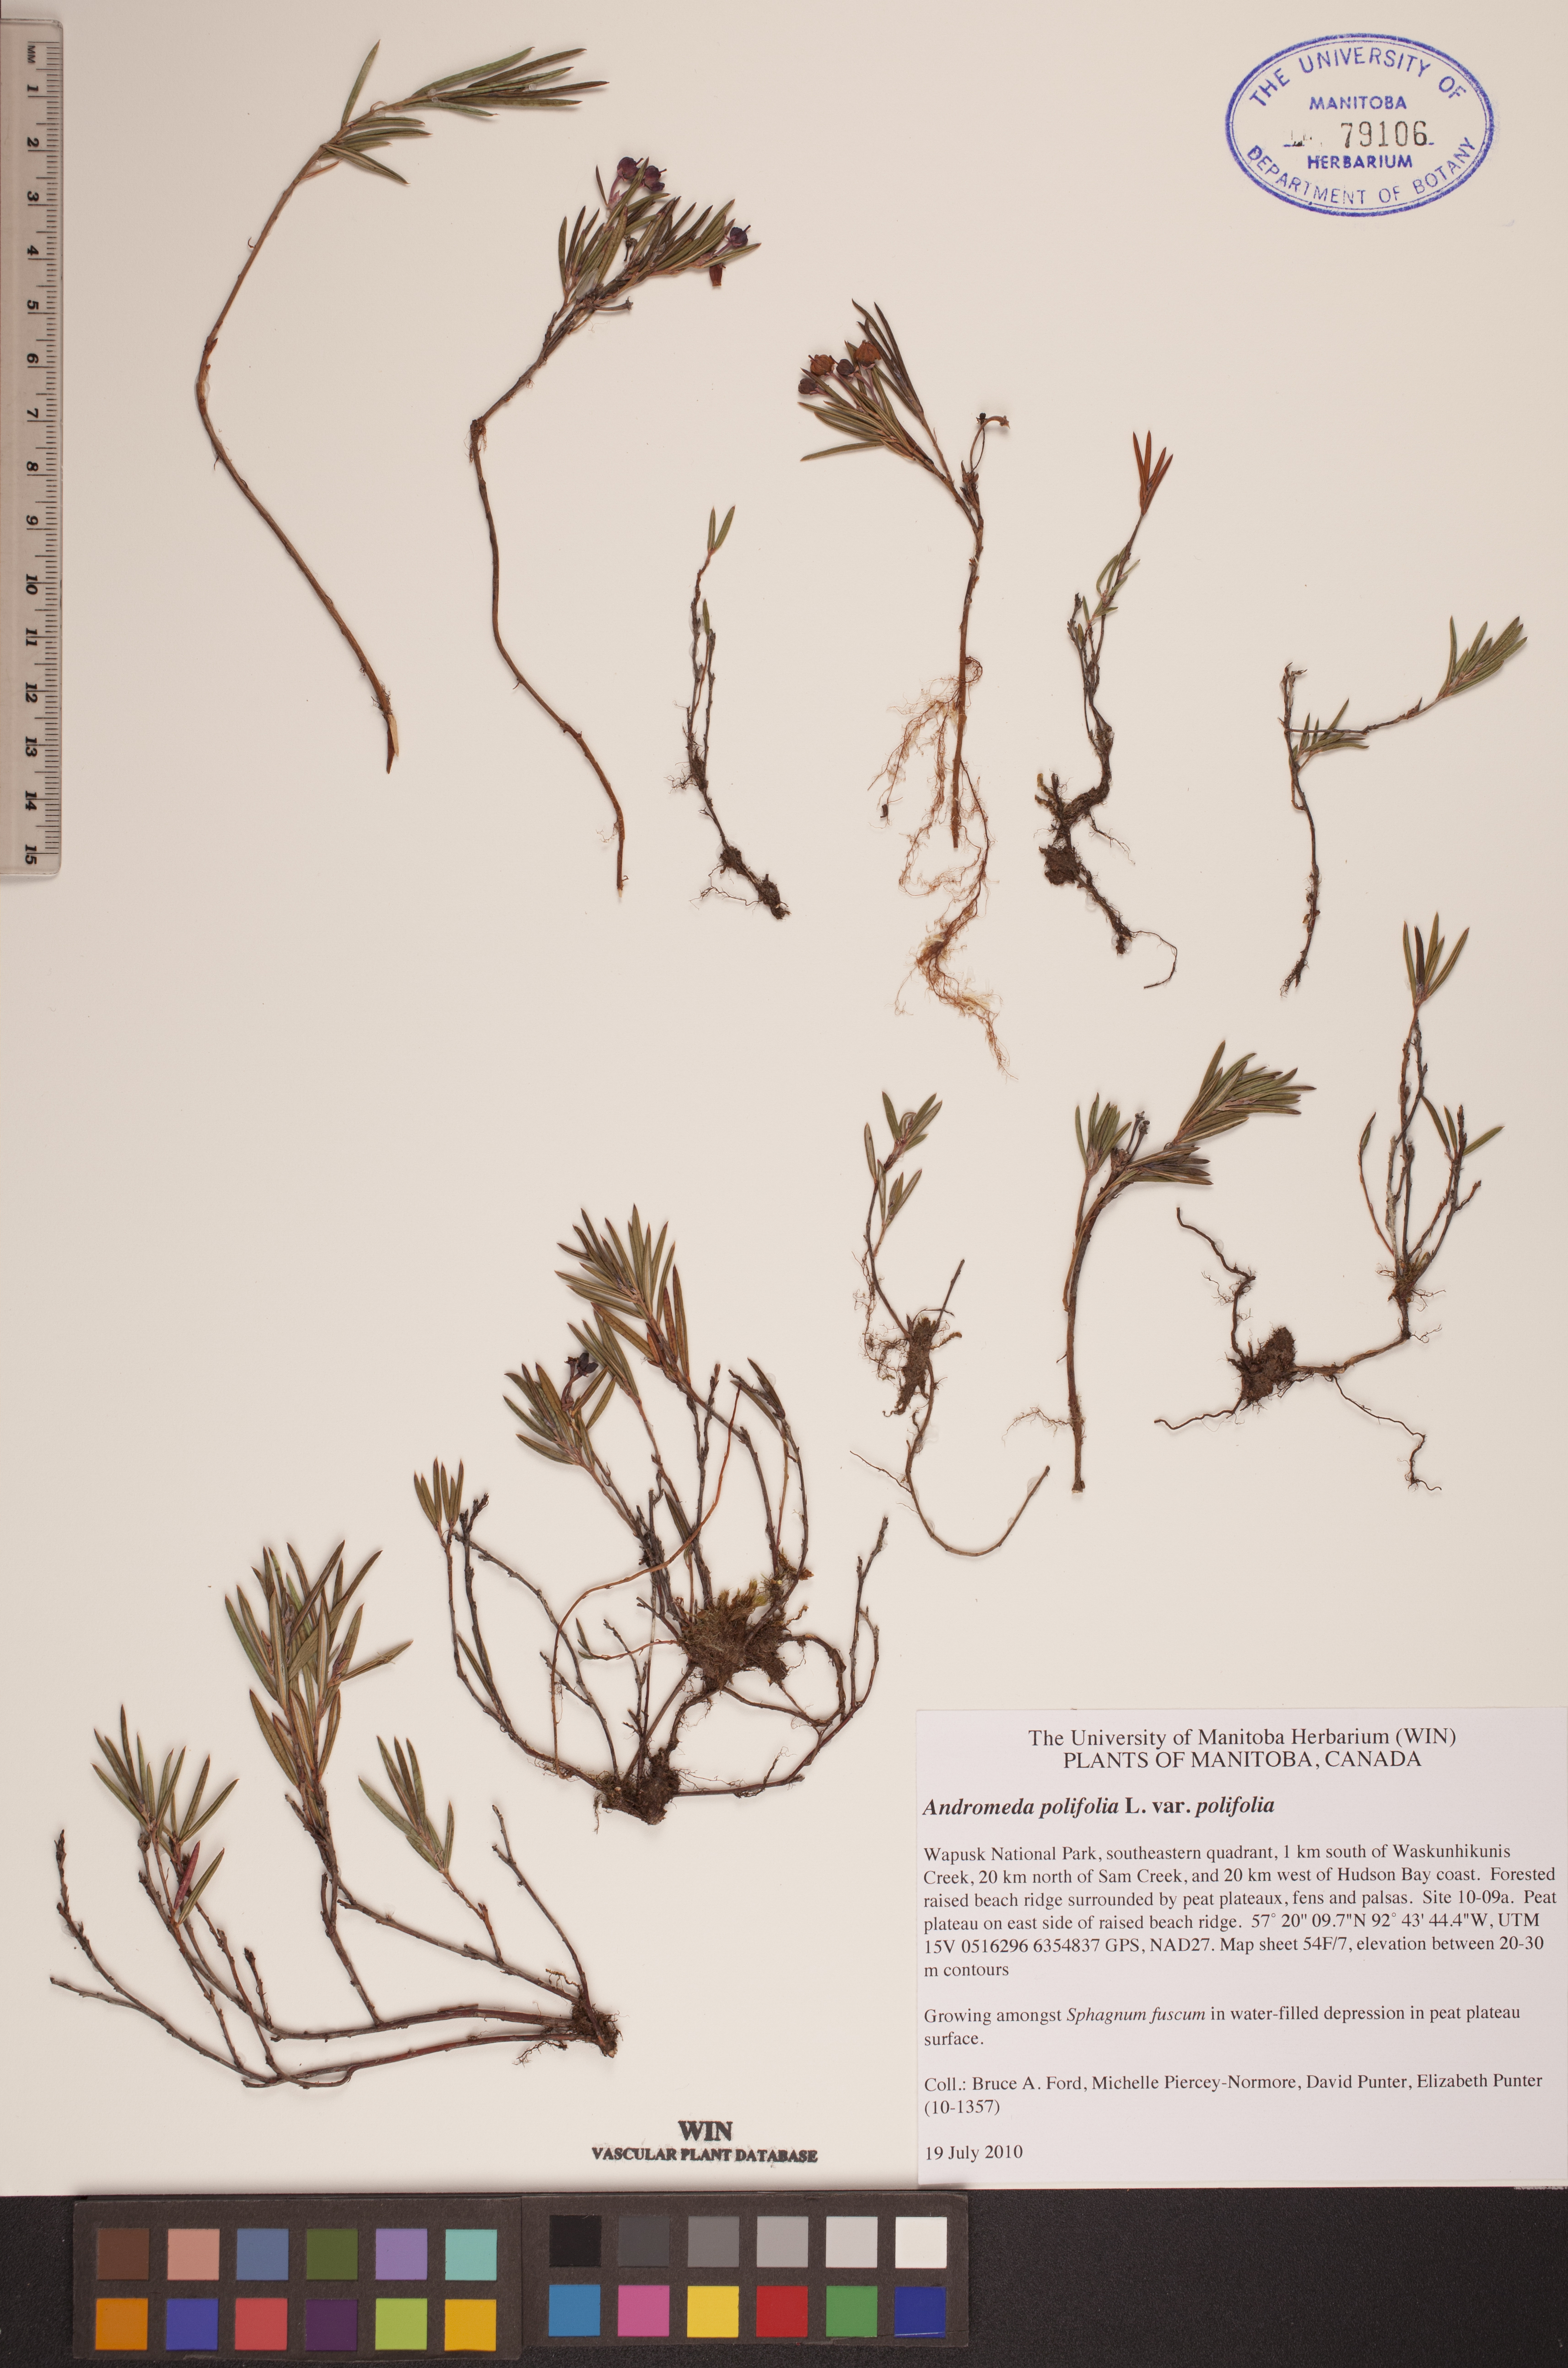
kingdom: Plantae
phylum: Tracheophyta
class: Magnoliopsida
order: Ericales
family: Ericaceae
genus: Andromeda
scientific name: Andromeda polifolia
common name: Bog-rosemary
